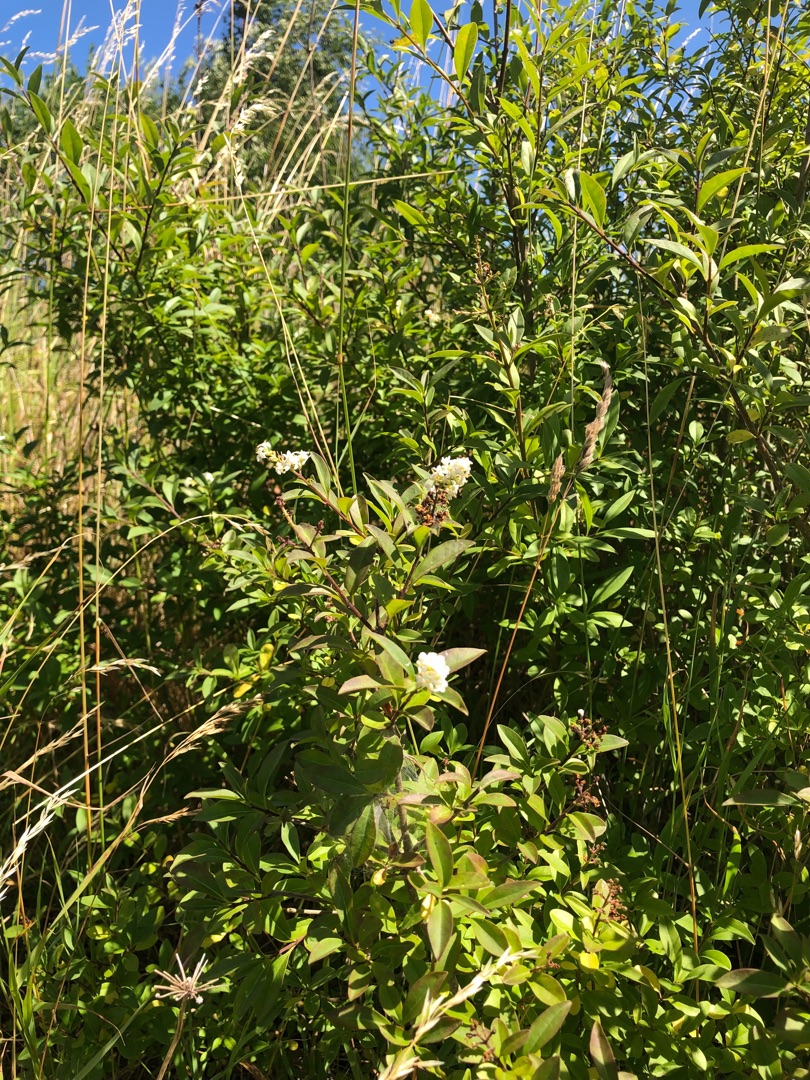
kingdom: Plantae
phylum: Tracheophyta
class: Magnoliopsida
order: Lamiales
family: Oleaceae
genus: Ligustrum
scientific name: Ligustrum vulgare
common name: Liguster
